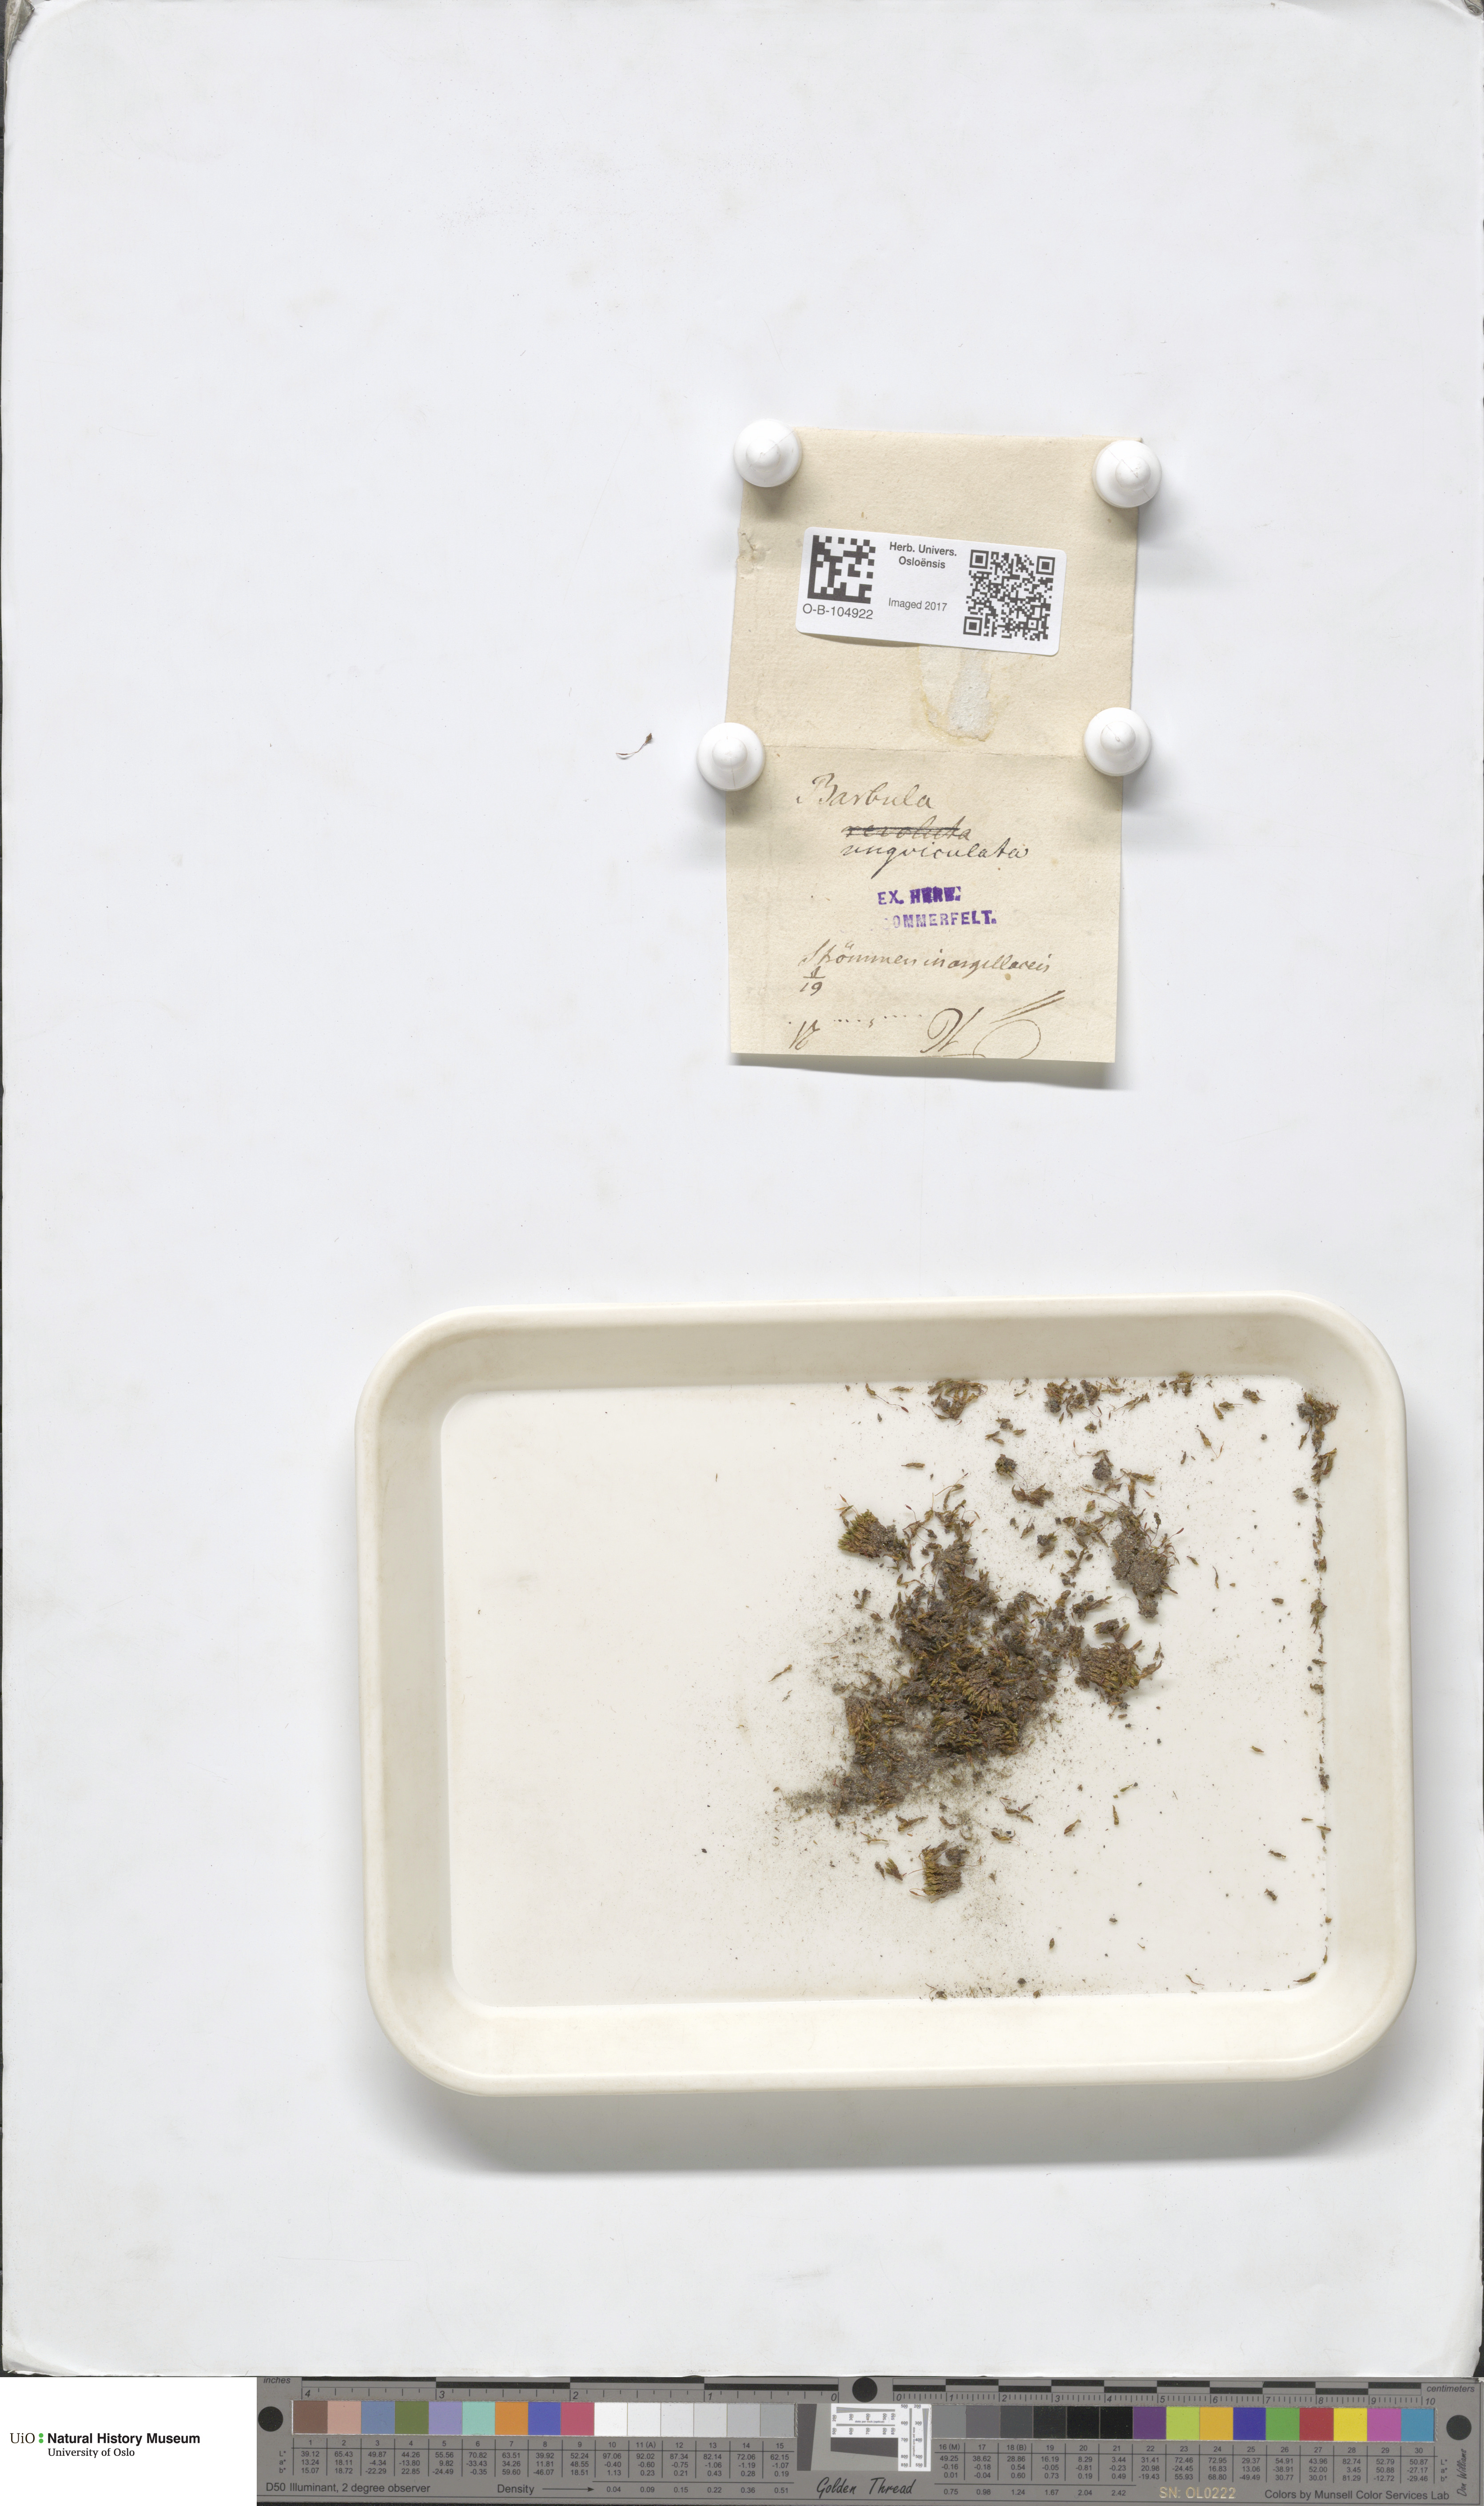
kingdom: Plantae
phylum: Bryophyta
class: Bryopsida
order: Pottiales
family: Pottiaceae
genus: Barbula
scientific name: Barbula unguiculata
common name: Prickly beard moss
